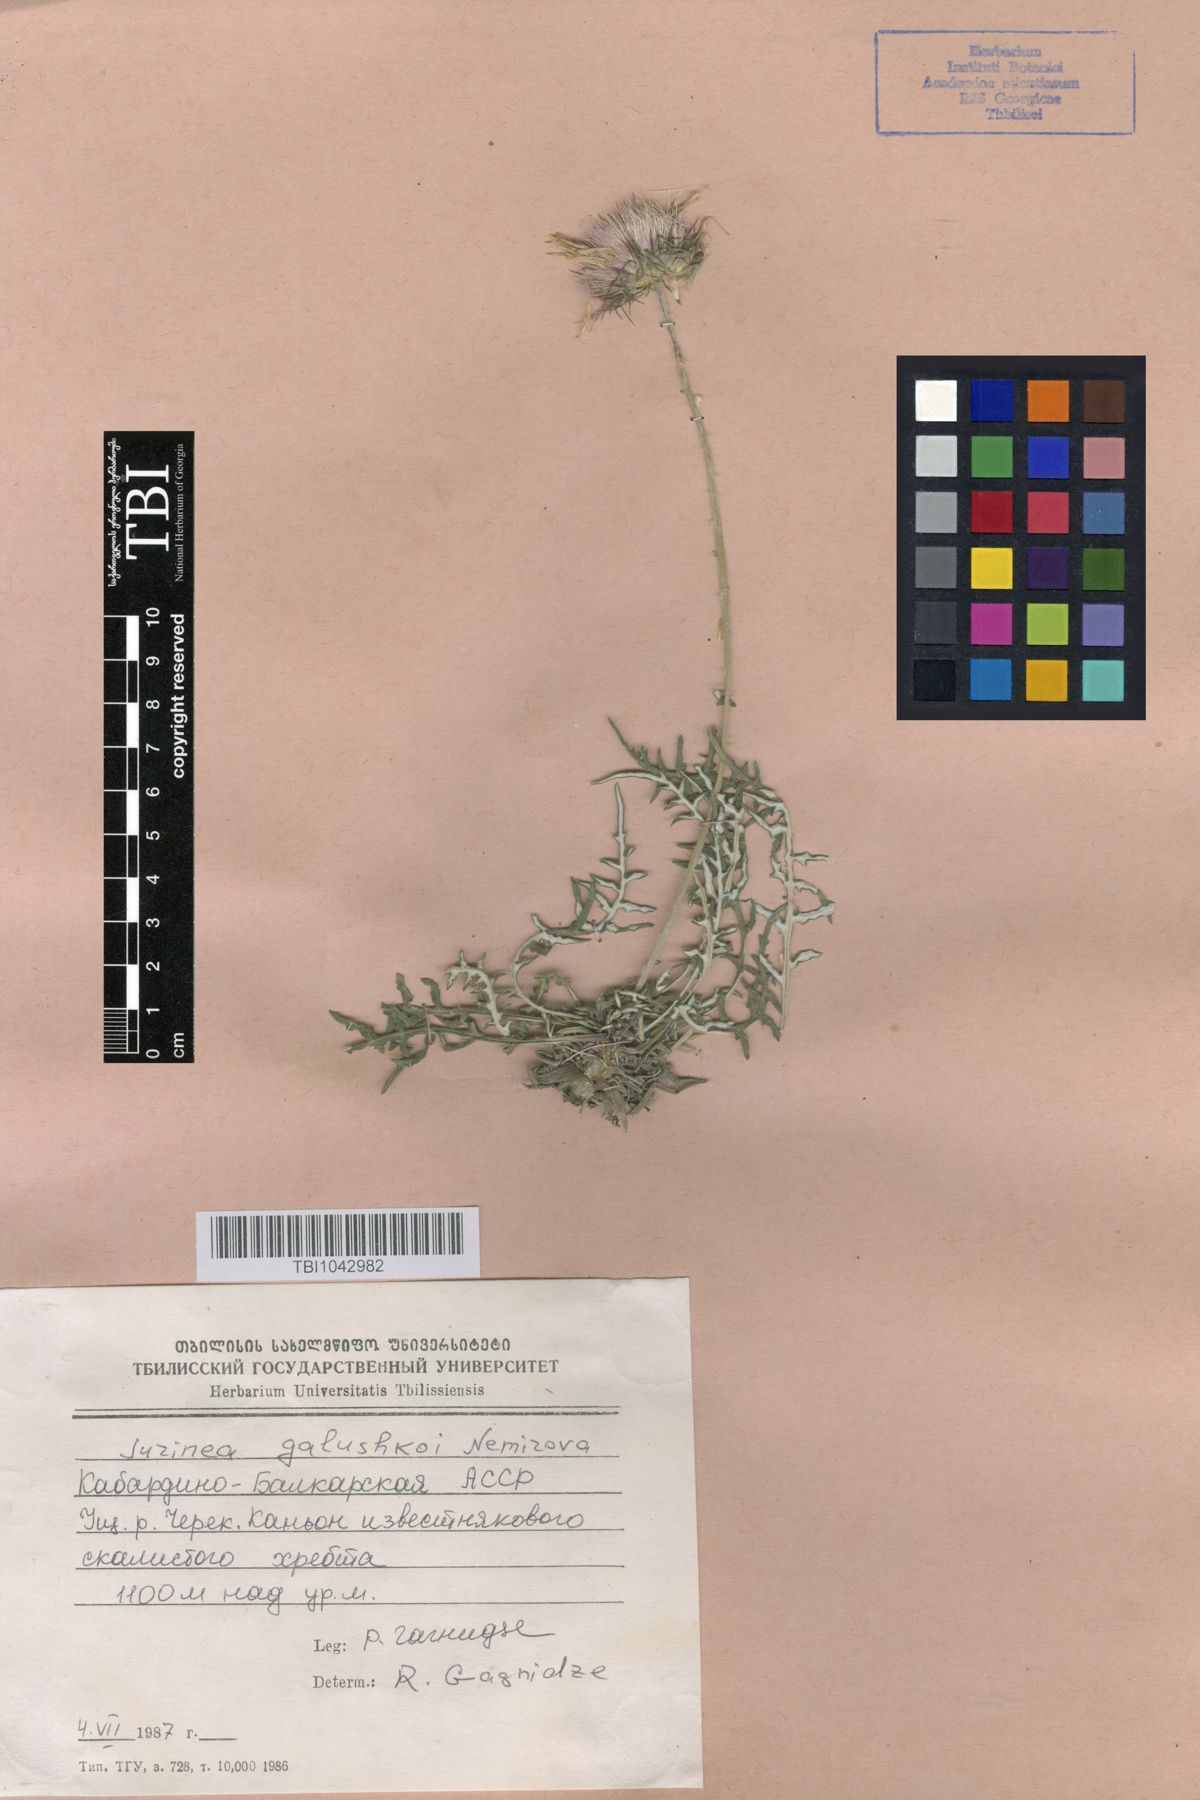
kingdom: Plantae
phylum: Tracheophyta
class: Magnoliopsida
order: Asterales
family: Asteraceae
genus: Jurinea
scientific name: Jurinea galushkoi
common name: Galushko's jurinea
